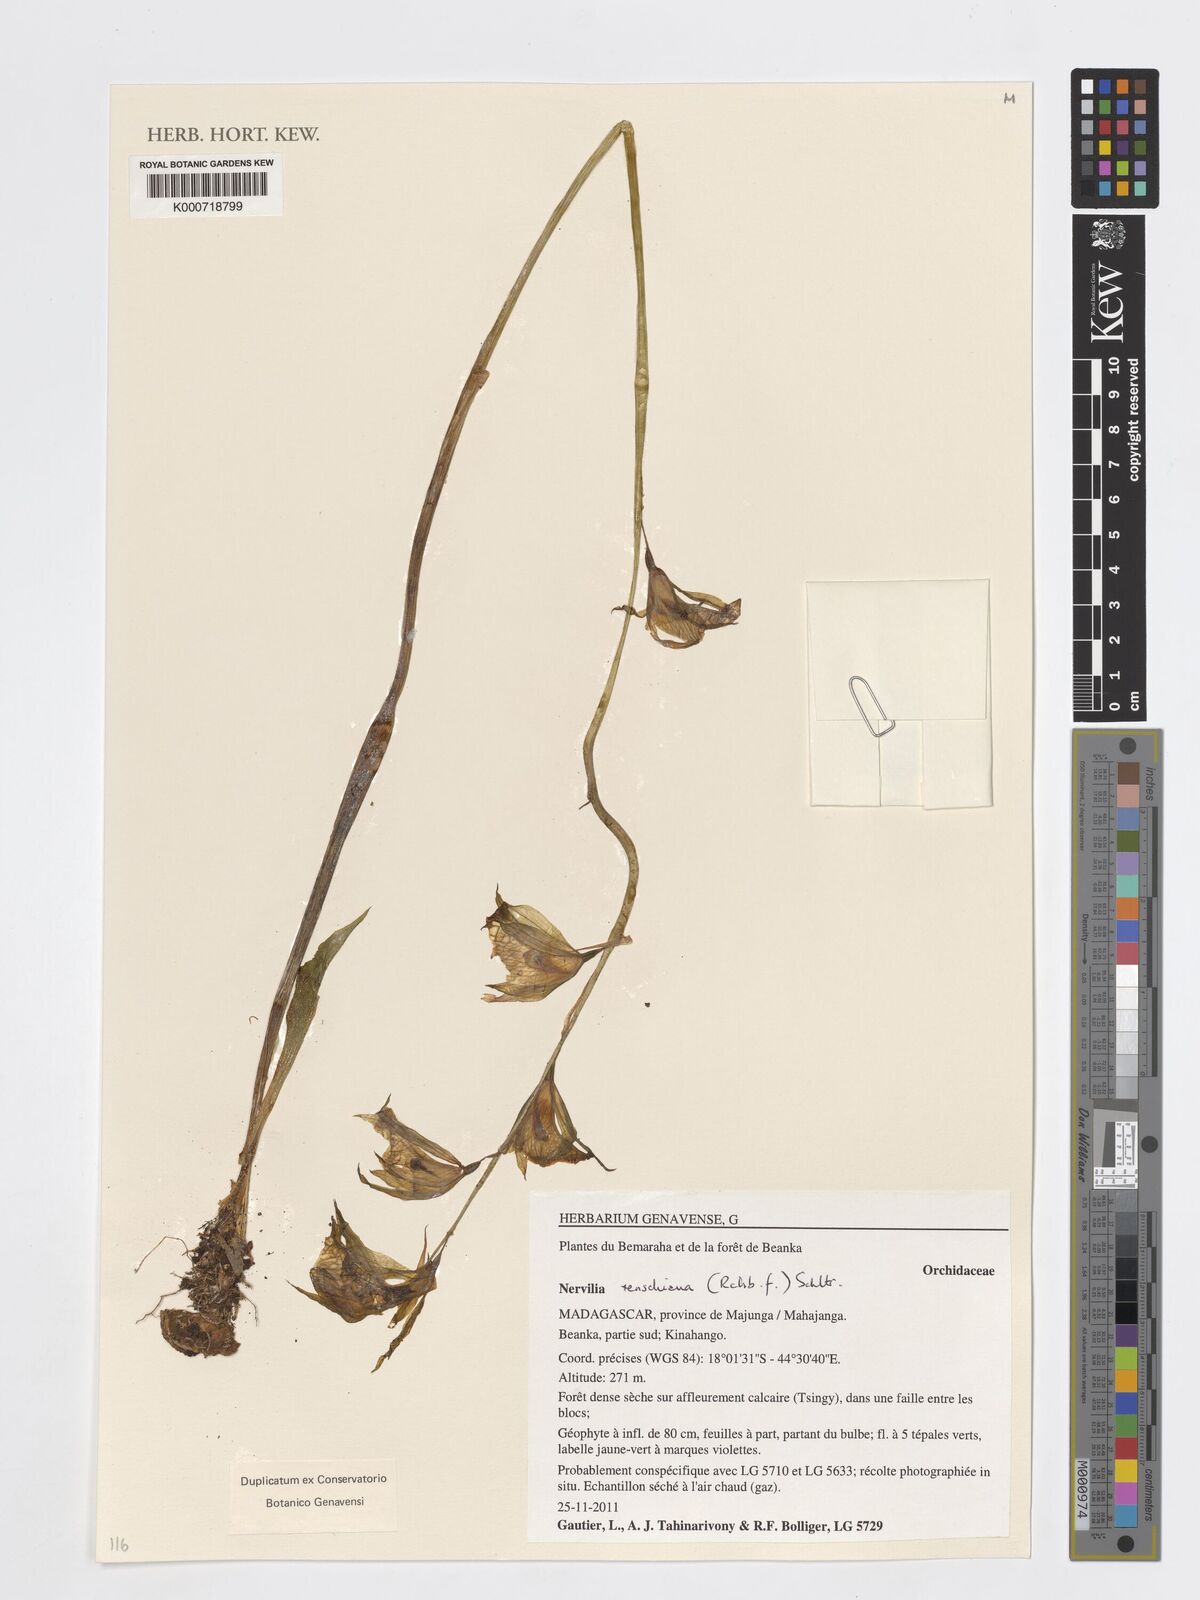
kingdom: Plantae
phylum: Tracheophyta
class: Liliopsida
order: Asparagales
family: Orchidaceae
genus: Nervilia
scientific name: Nervilia renschiana
